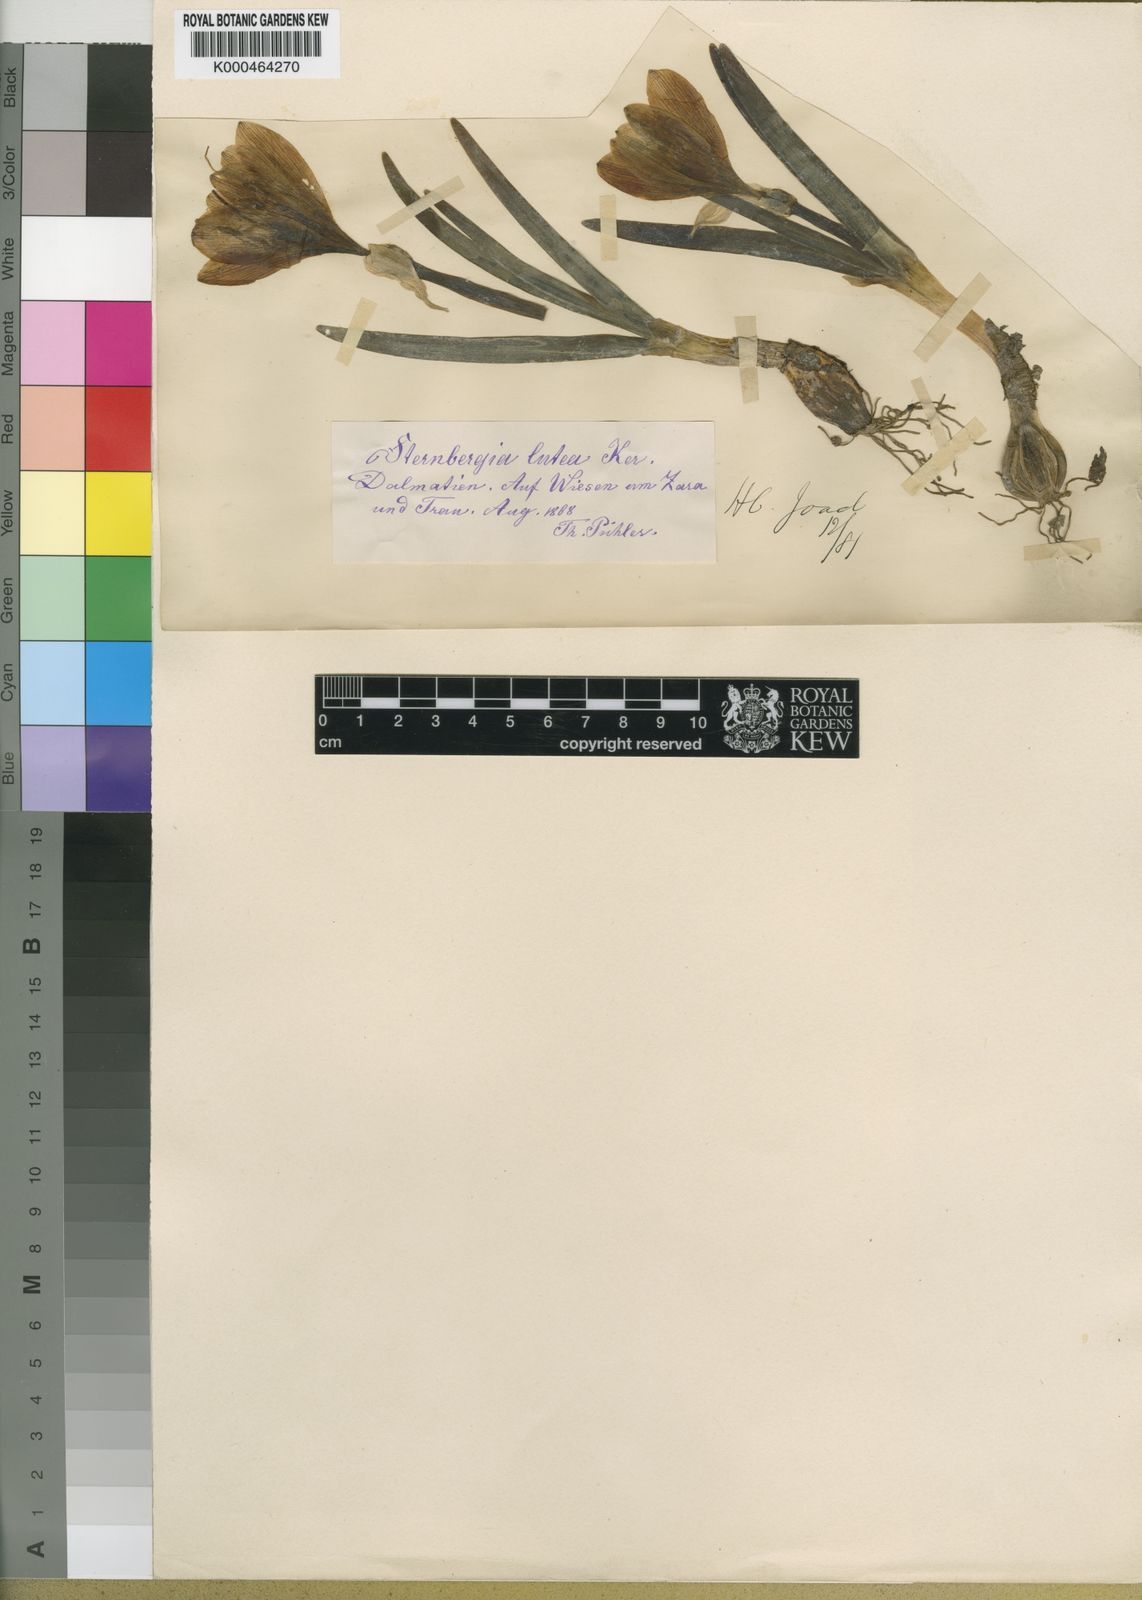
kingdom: Plantae
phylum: Tracheophyta
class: Liliopsida
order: Asparagales
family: Amaryllidaceae
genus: Sternbergia
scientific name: Sternbergia
